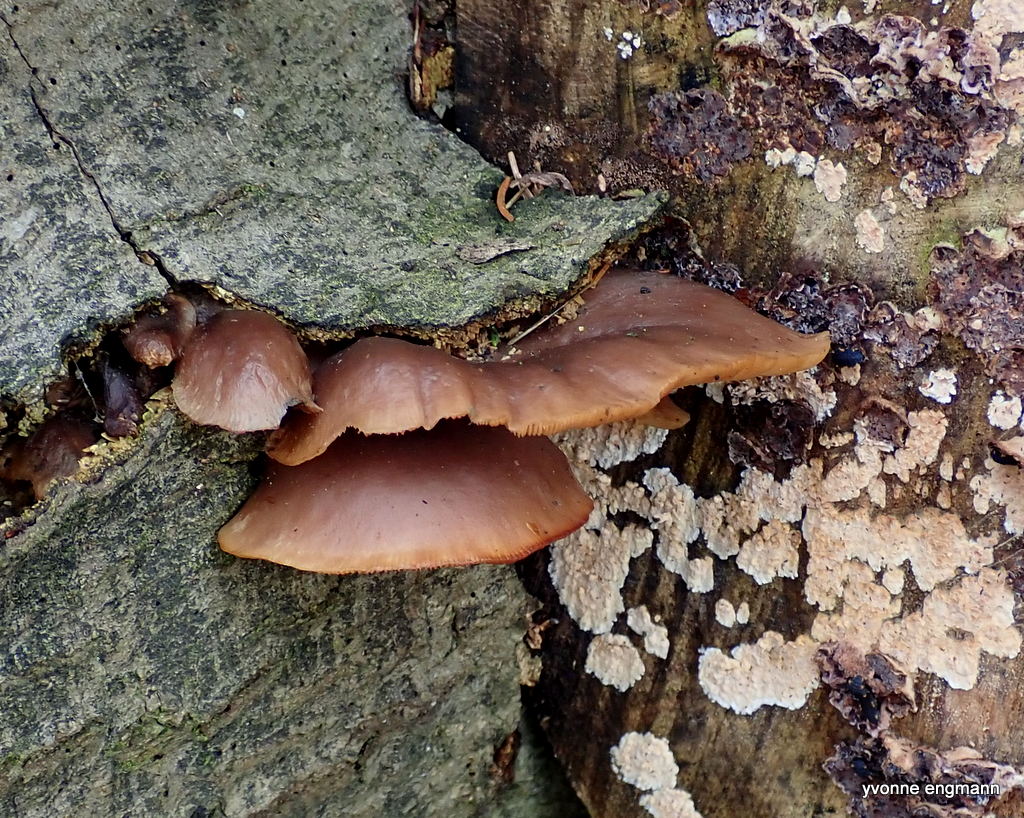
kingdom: Fungi
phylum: Basidiomycota
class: Agaricomycetes
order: Agaricales
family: Pleurotaceae
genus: Pleurotus
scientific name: Pleurotus ostreatus
